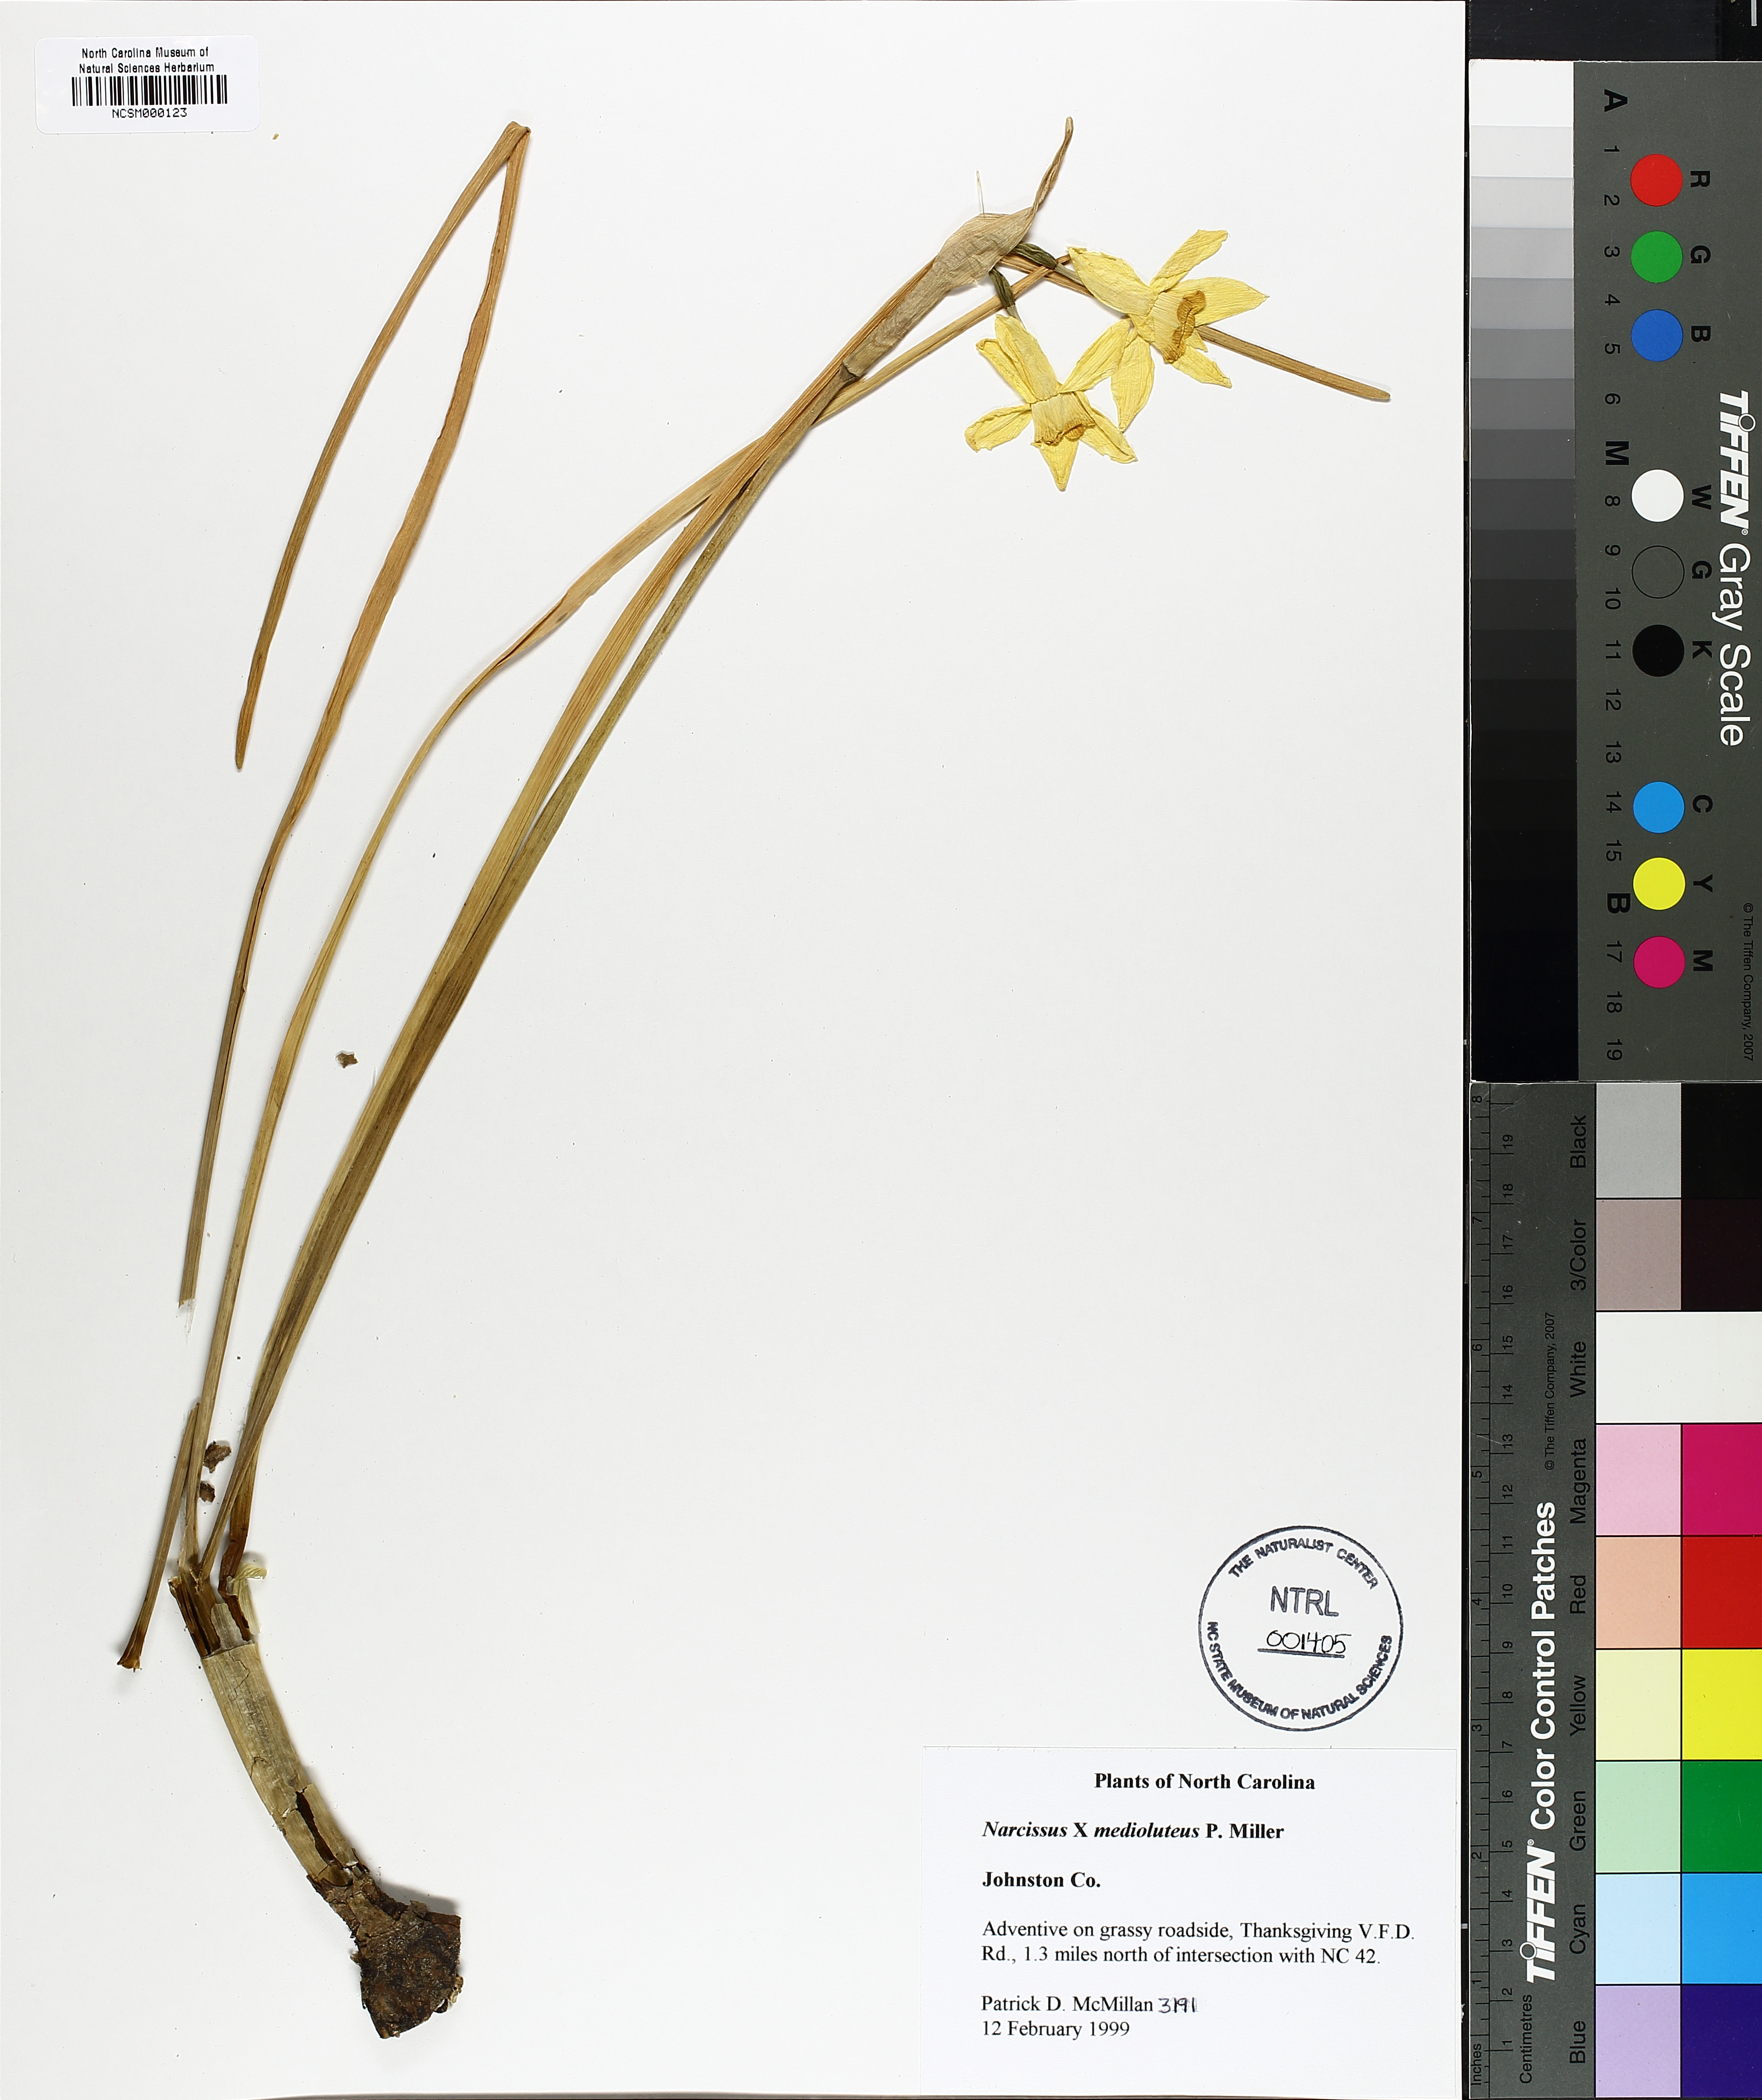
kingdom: Plantae
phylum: Tracheophyta
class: Liliopsida
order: Asparagales
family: Amaryllidaceae
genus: Narcissus
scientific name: Narcissus
